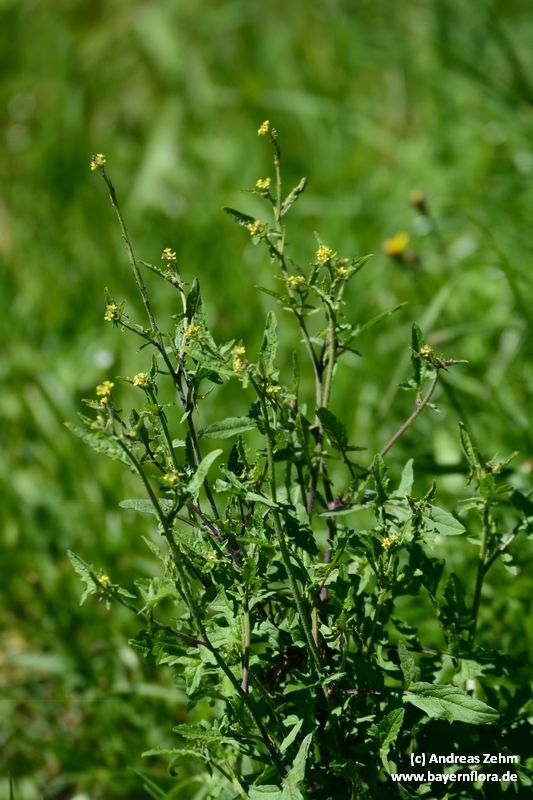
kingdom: Plantae
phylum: Tracheophyta
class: Magnoliopsida
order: Brassicales
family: Brassicaceae
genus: Sisymbrium
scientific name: Sisymbrium officinale
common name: Hedge mustard
